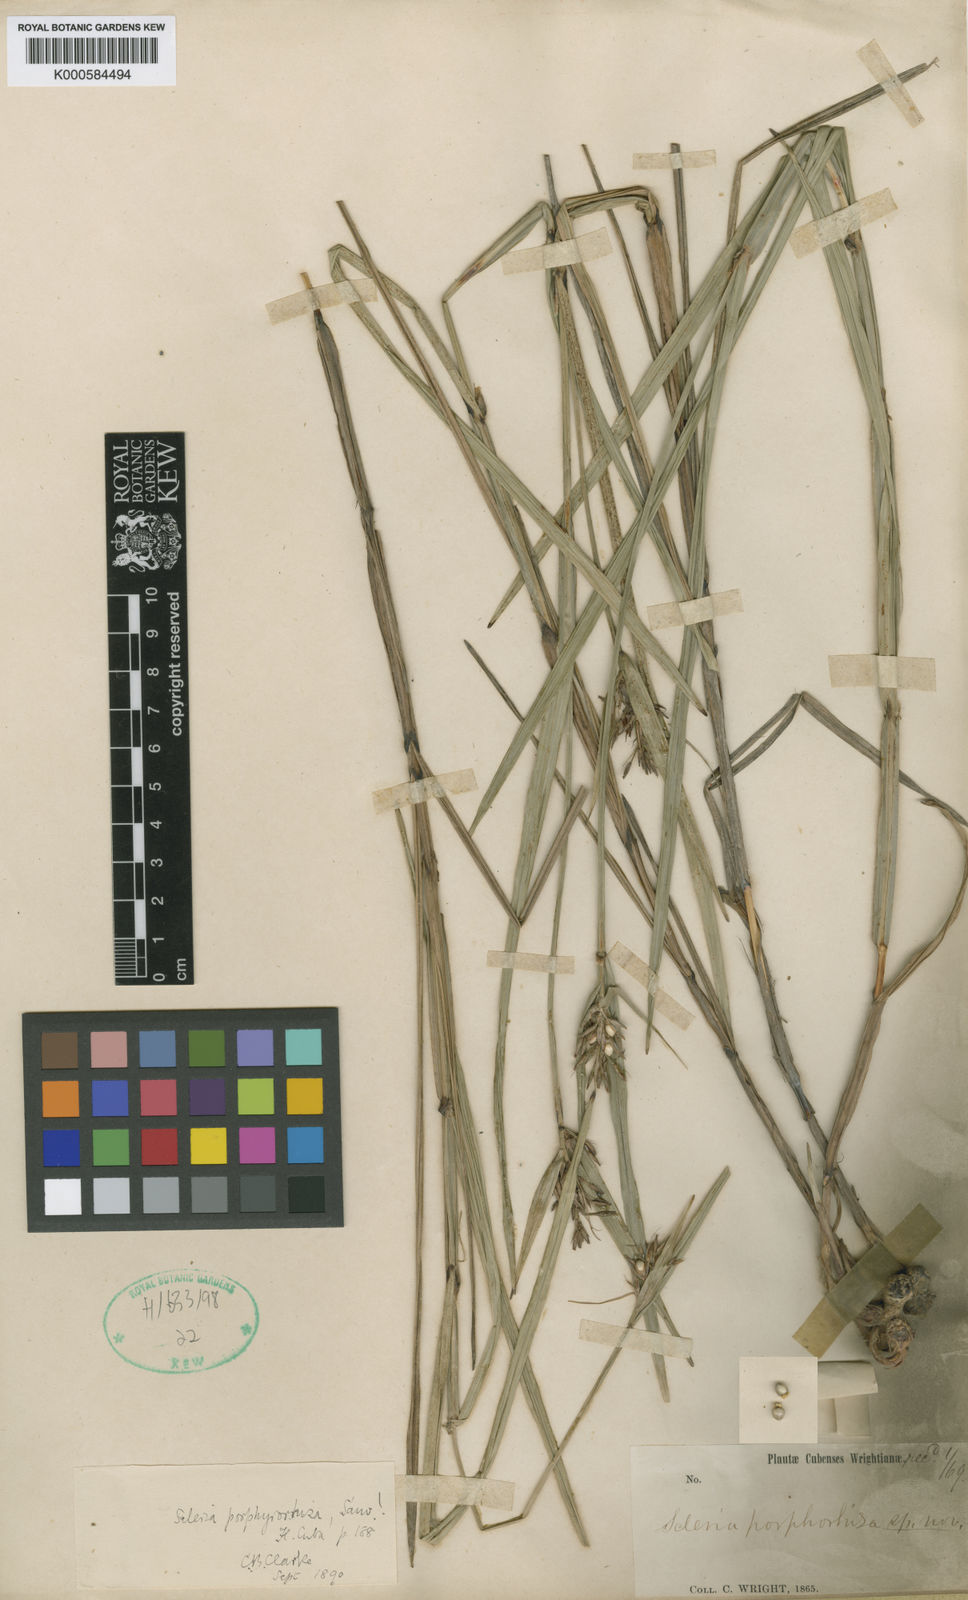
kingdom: Plantae
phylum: Tracheophyta
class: Liliopsida
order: Poales
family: Cyperaceae
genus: Scleria
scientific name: Scleria scabra
